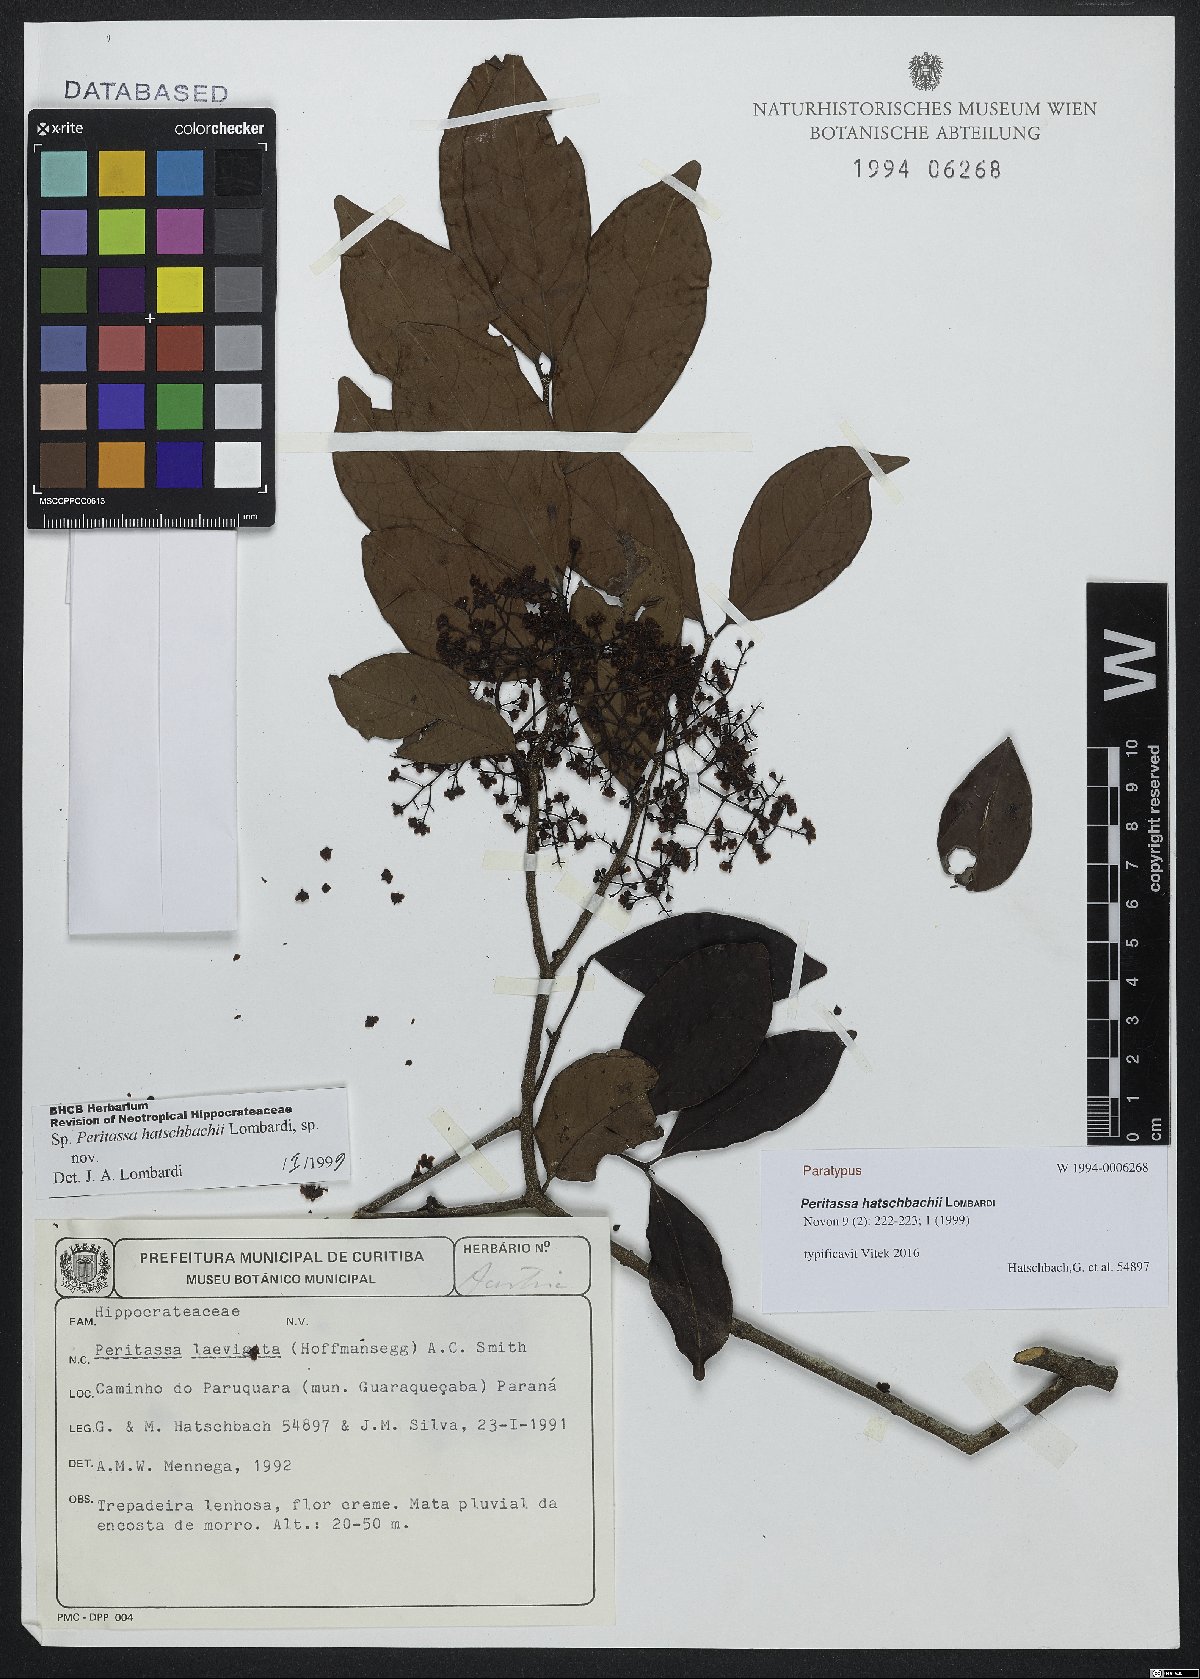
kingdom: Plantae
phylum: Tracheophyta
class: Magnoliopsida
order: Celastrales
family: Celastraceae
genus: Peritassa
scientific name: Peritassa hatschbachii
